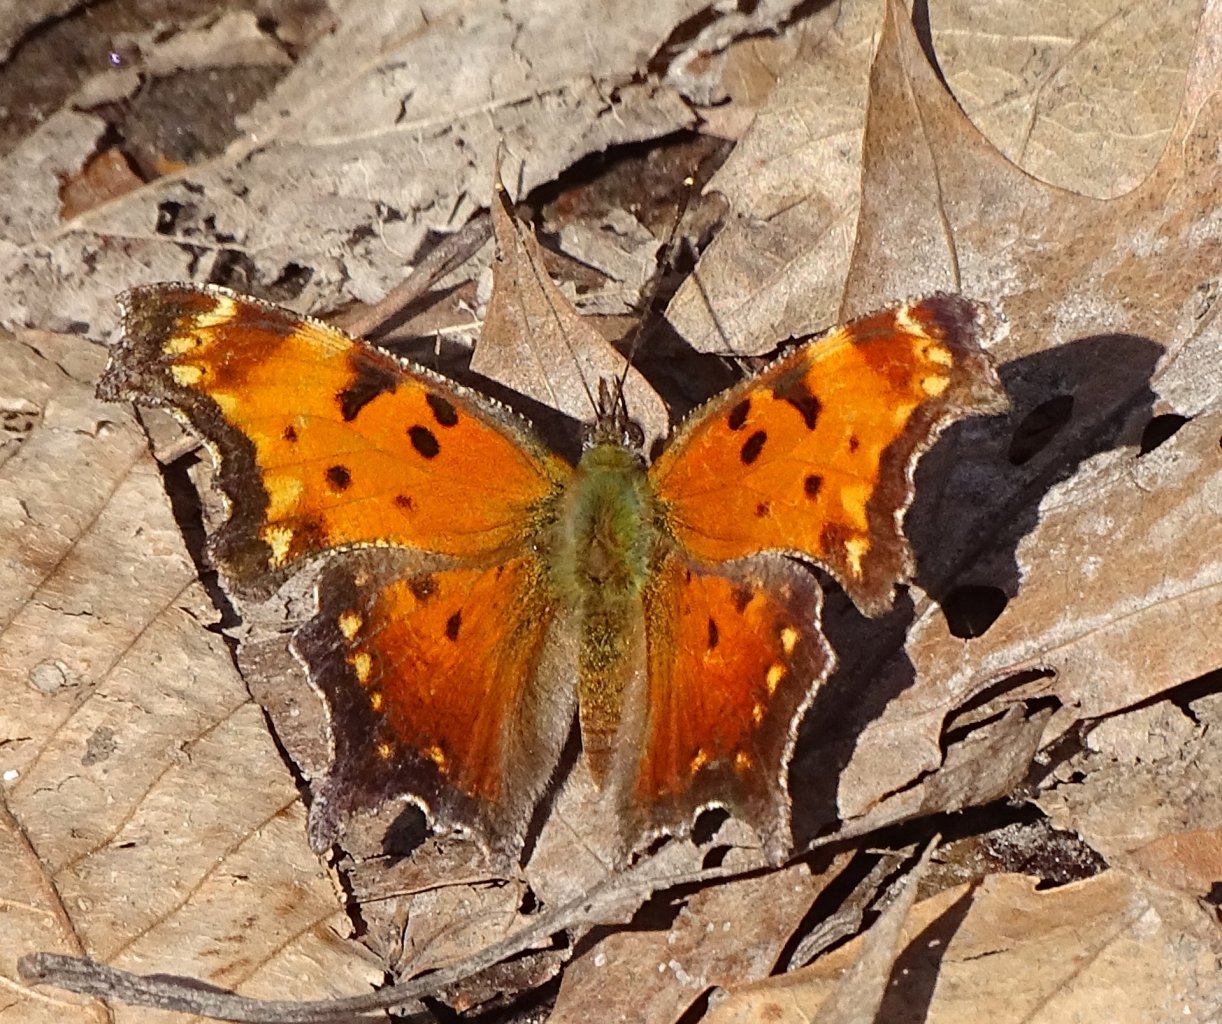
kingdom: Animalia
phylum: Arthropoda
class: Insecta
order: Lepidoptera
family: Nymphalidae
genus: Polygonia
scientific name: Polygonia progne
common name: Gray Comma
